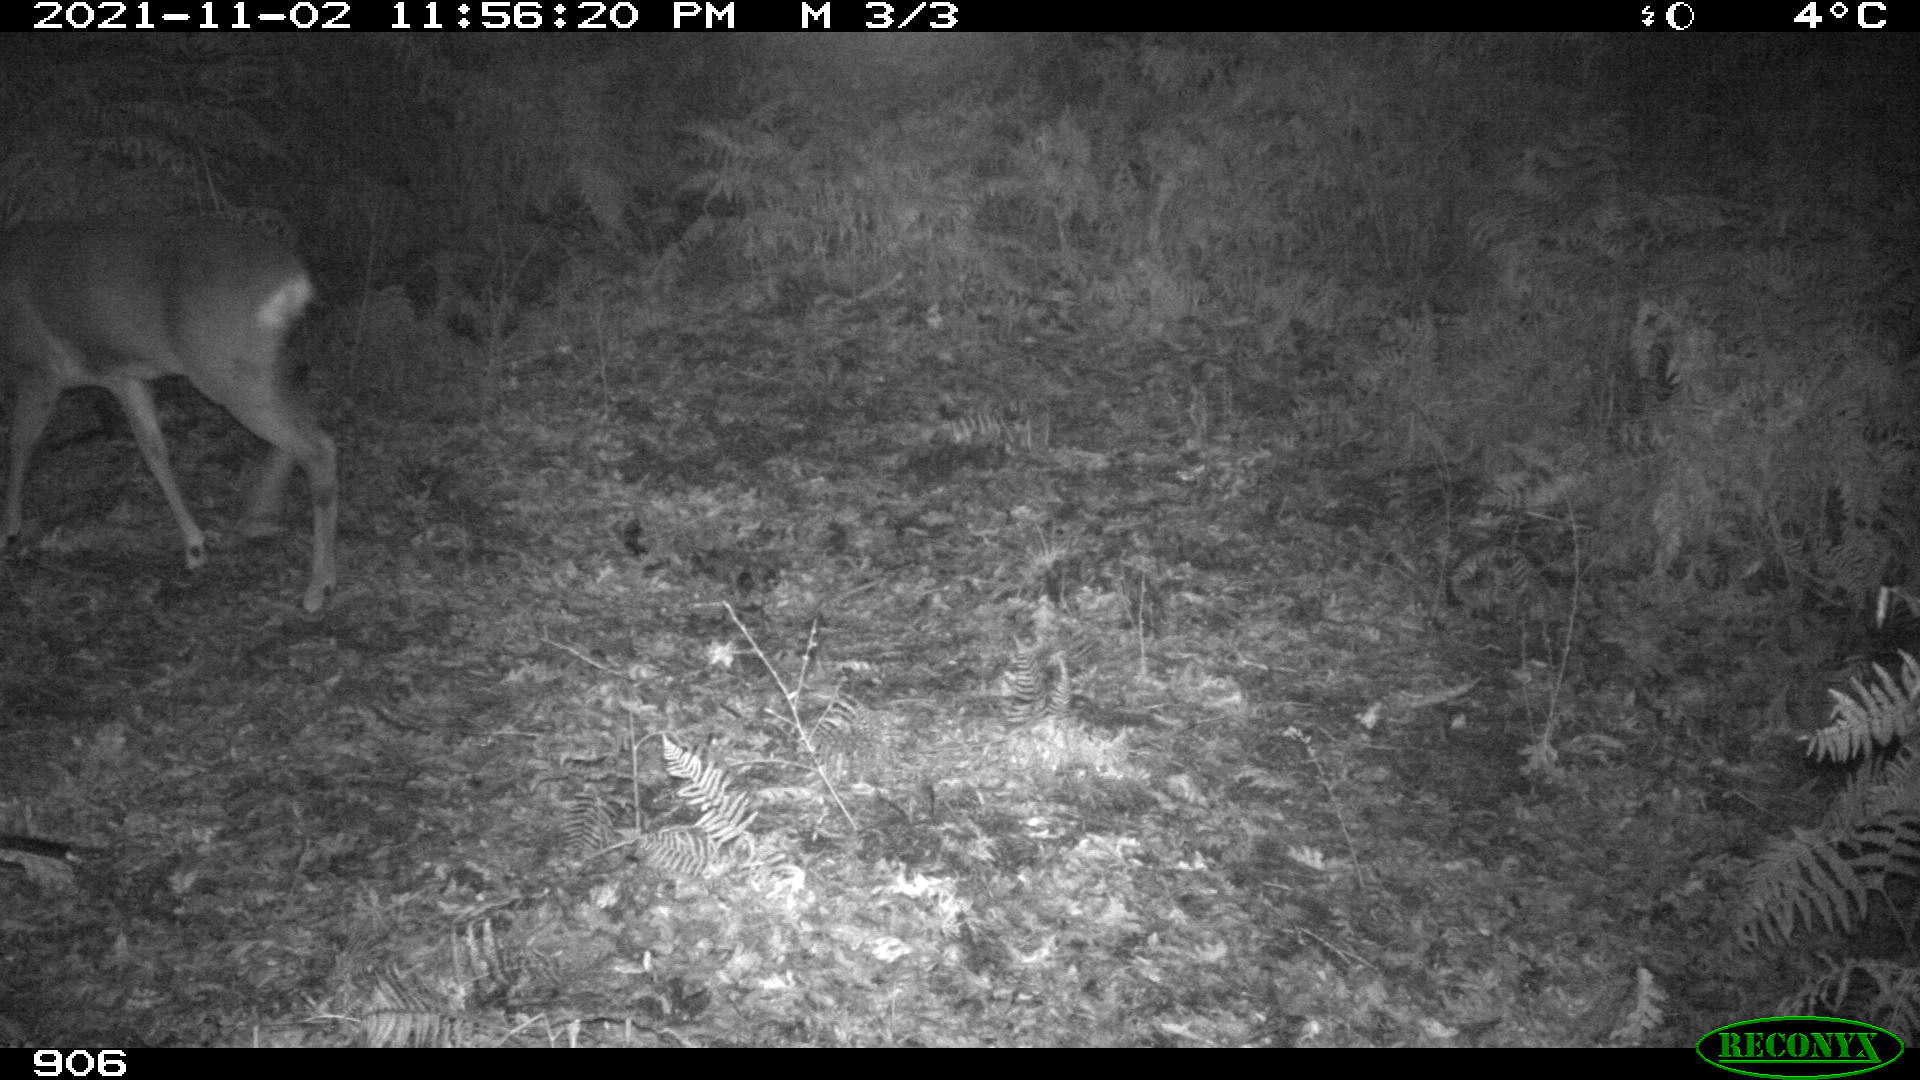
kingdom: Animalia
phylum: Chordata
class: Mammalia
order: Artiodactyla
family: Cervidae
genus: Capreolus
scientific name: Capreolus capreolus
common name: Western roe deer
